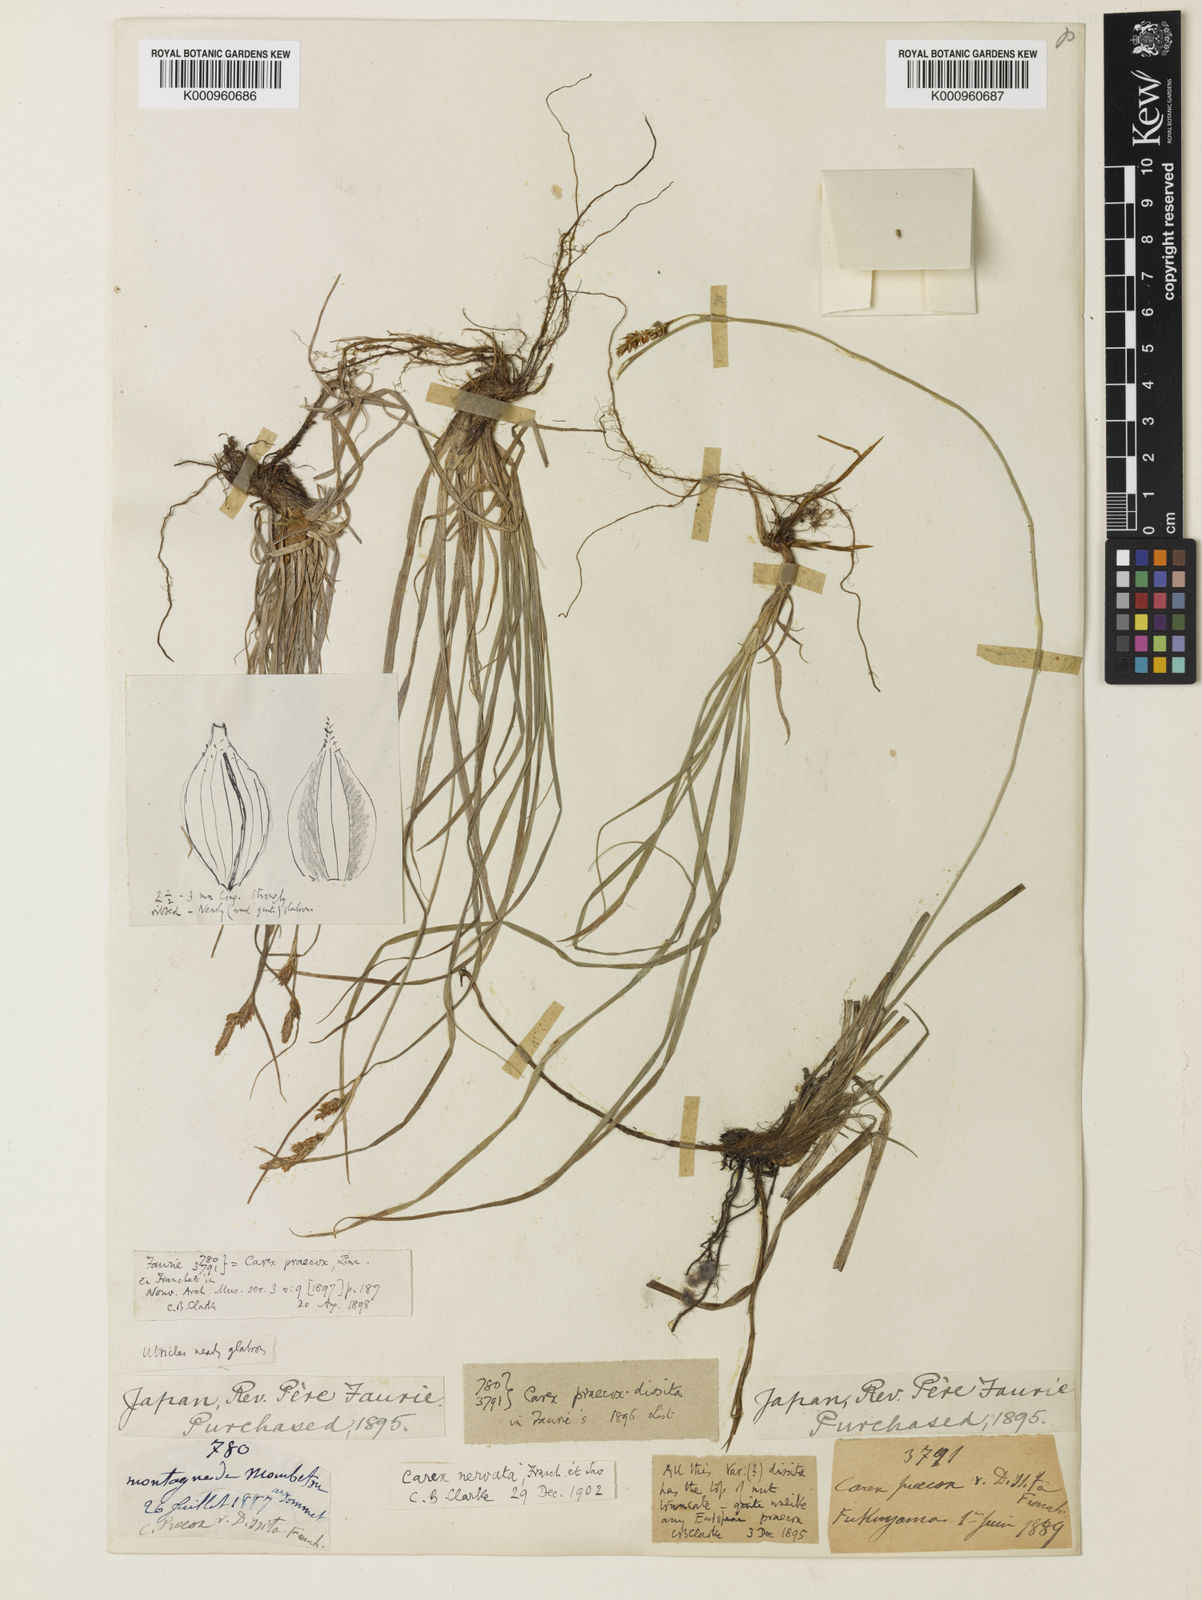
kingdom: Plantae
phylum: Tracheophyta
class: Liliopsida
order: Poales
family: Cyperaceae
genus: Carex
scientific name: Carex caryophyllea
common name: Spring sedge
